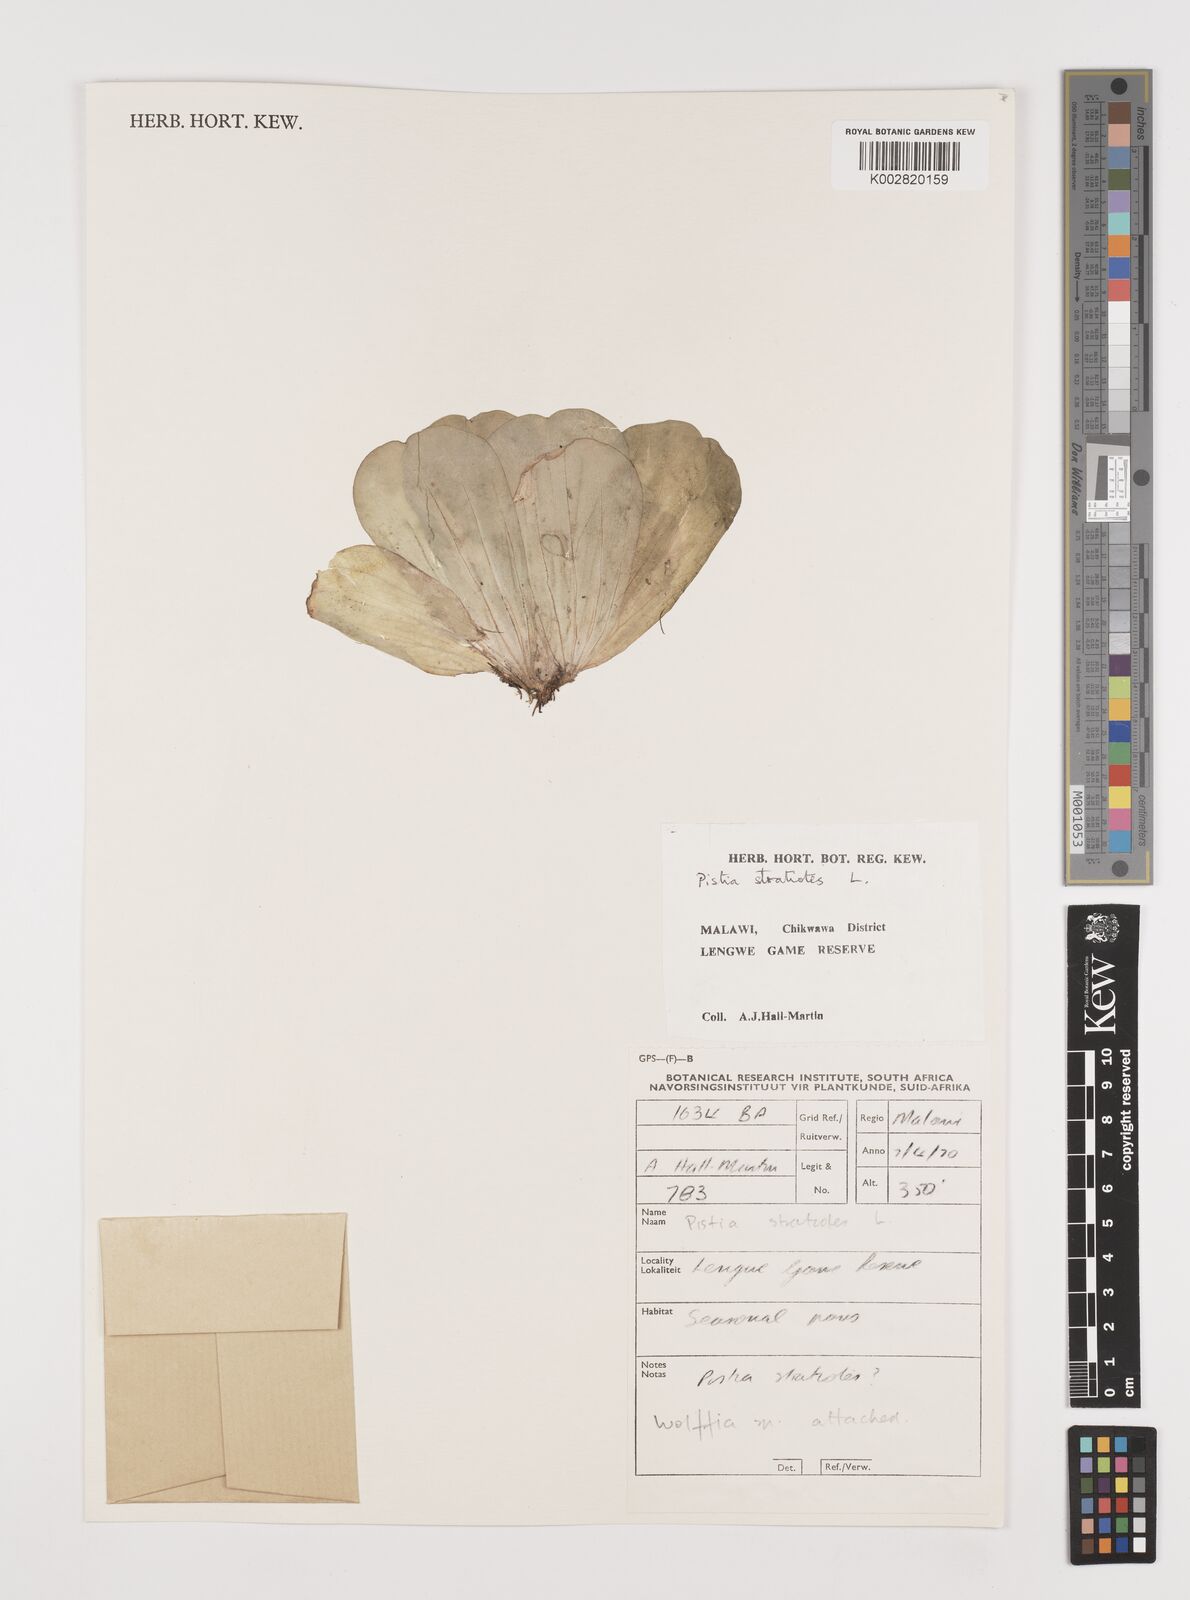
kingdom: Plantae
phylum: Tracheophyta
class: Liliopsida
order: Alismatales
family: Araceae
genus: Pistia
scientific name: Pistia stratiotes
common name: Water lettuce
